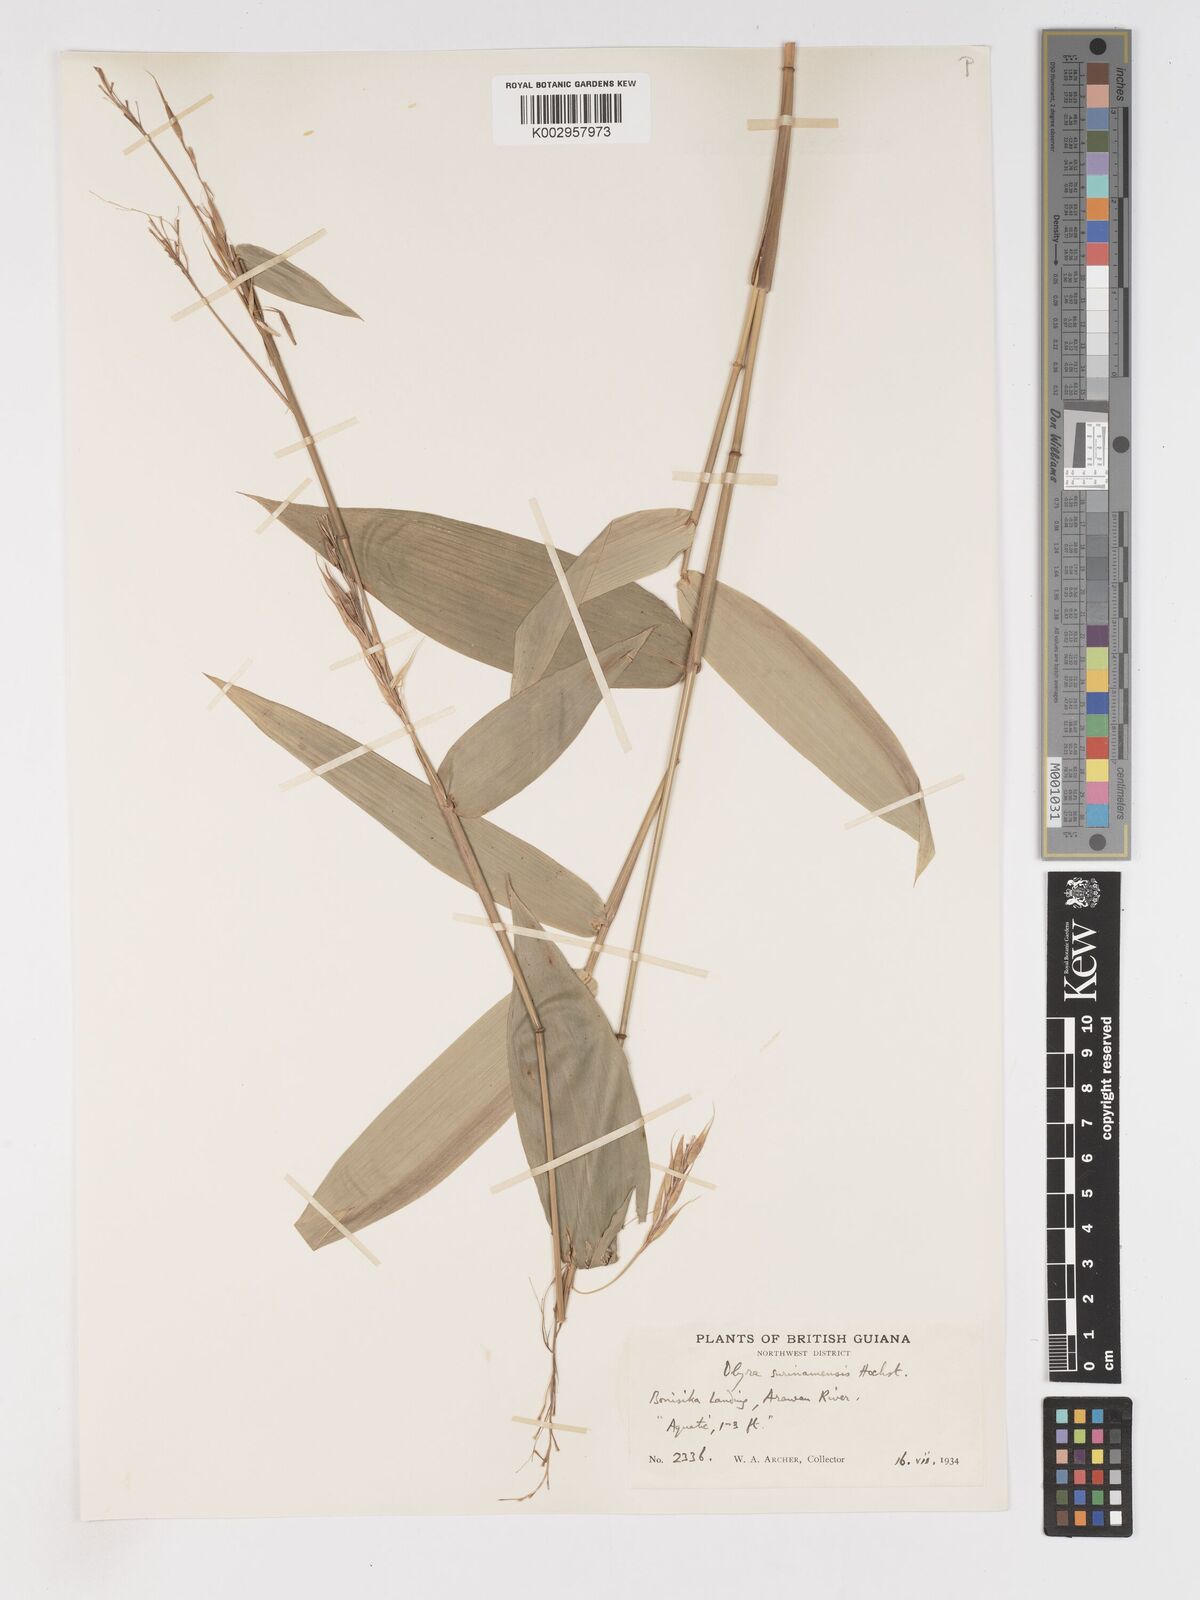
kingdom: Plantae
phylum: Tracheophyta
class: Liliopsida
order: Poales
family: Poaceae
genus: Olyra
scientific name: Olyra longifolia
